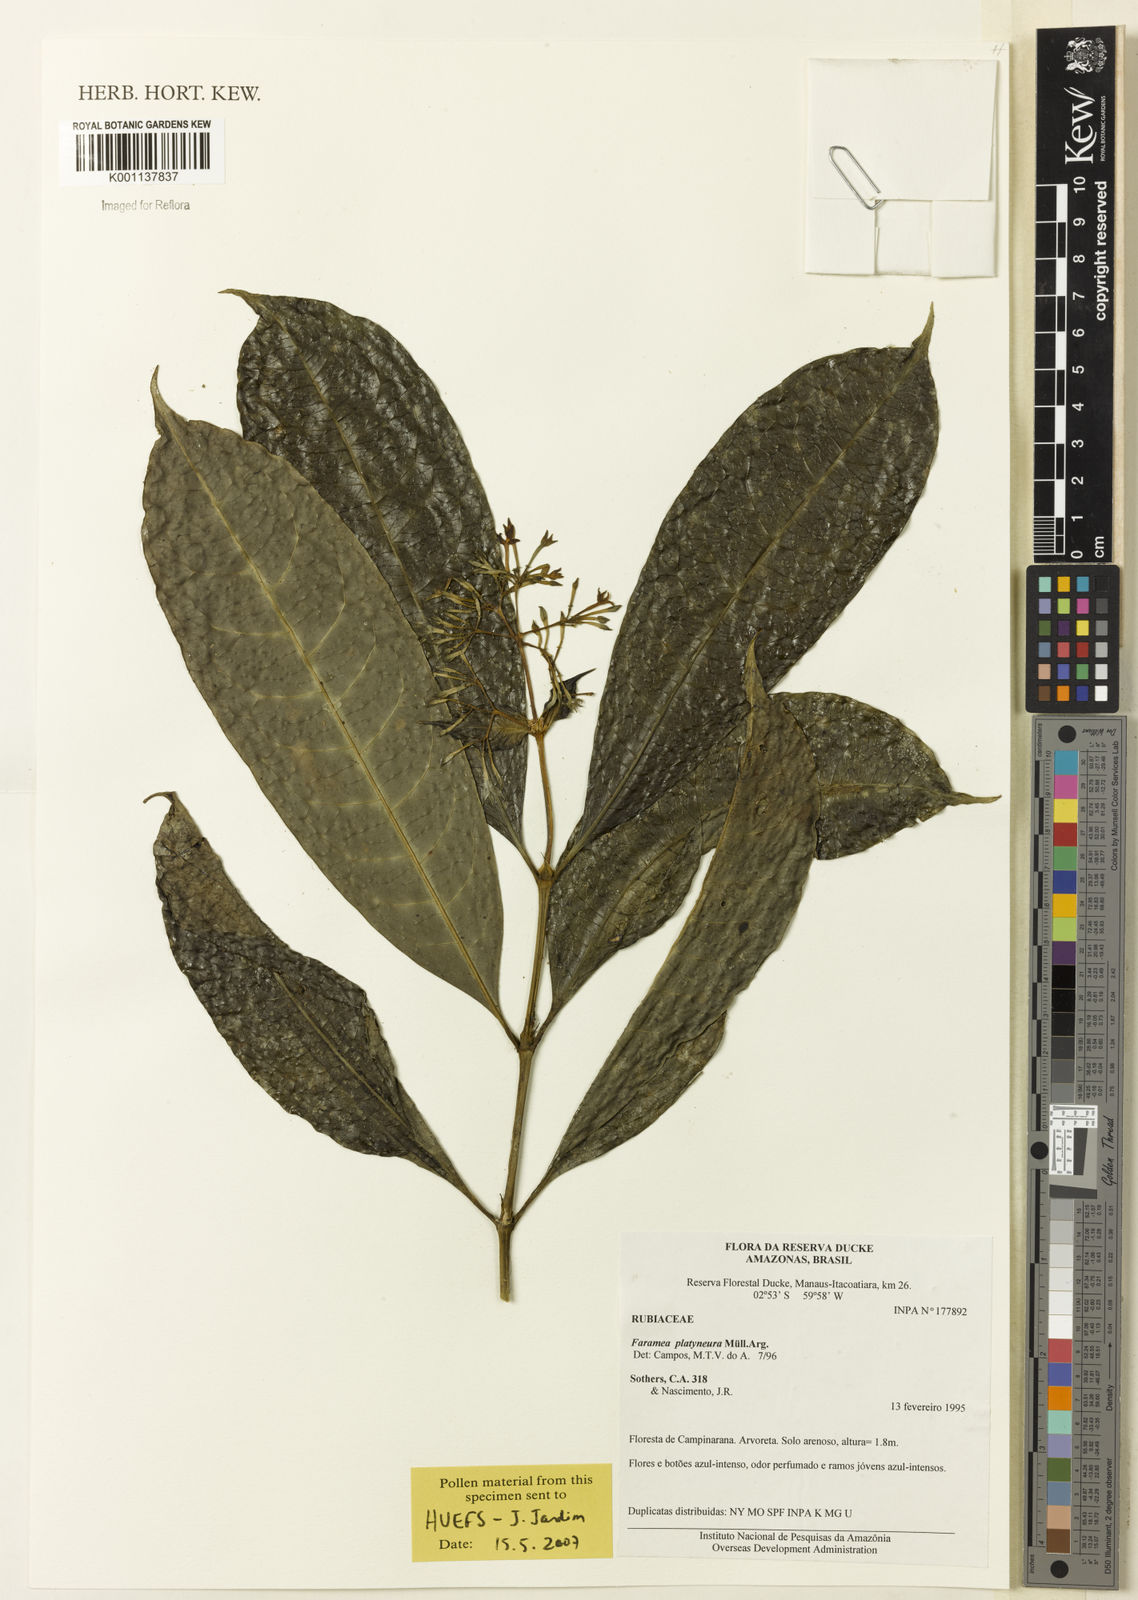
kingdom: Plantae
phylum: Tracheophyta
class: Magnoliopsida
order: Gentianales
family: Rubiaceae
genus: Faramea
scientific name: Faramea
